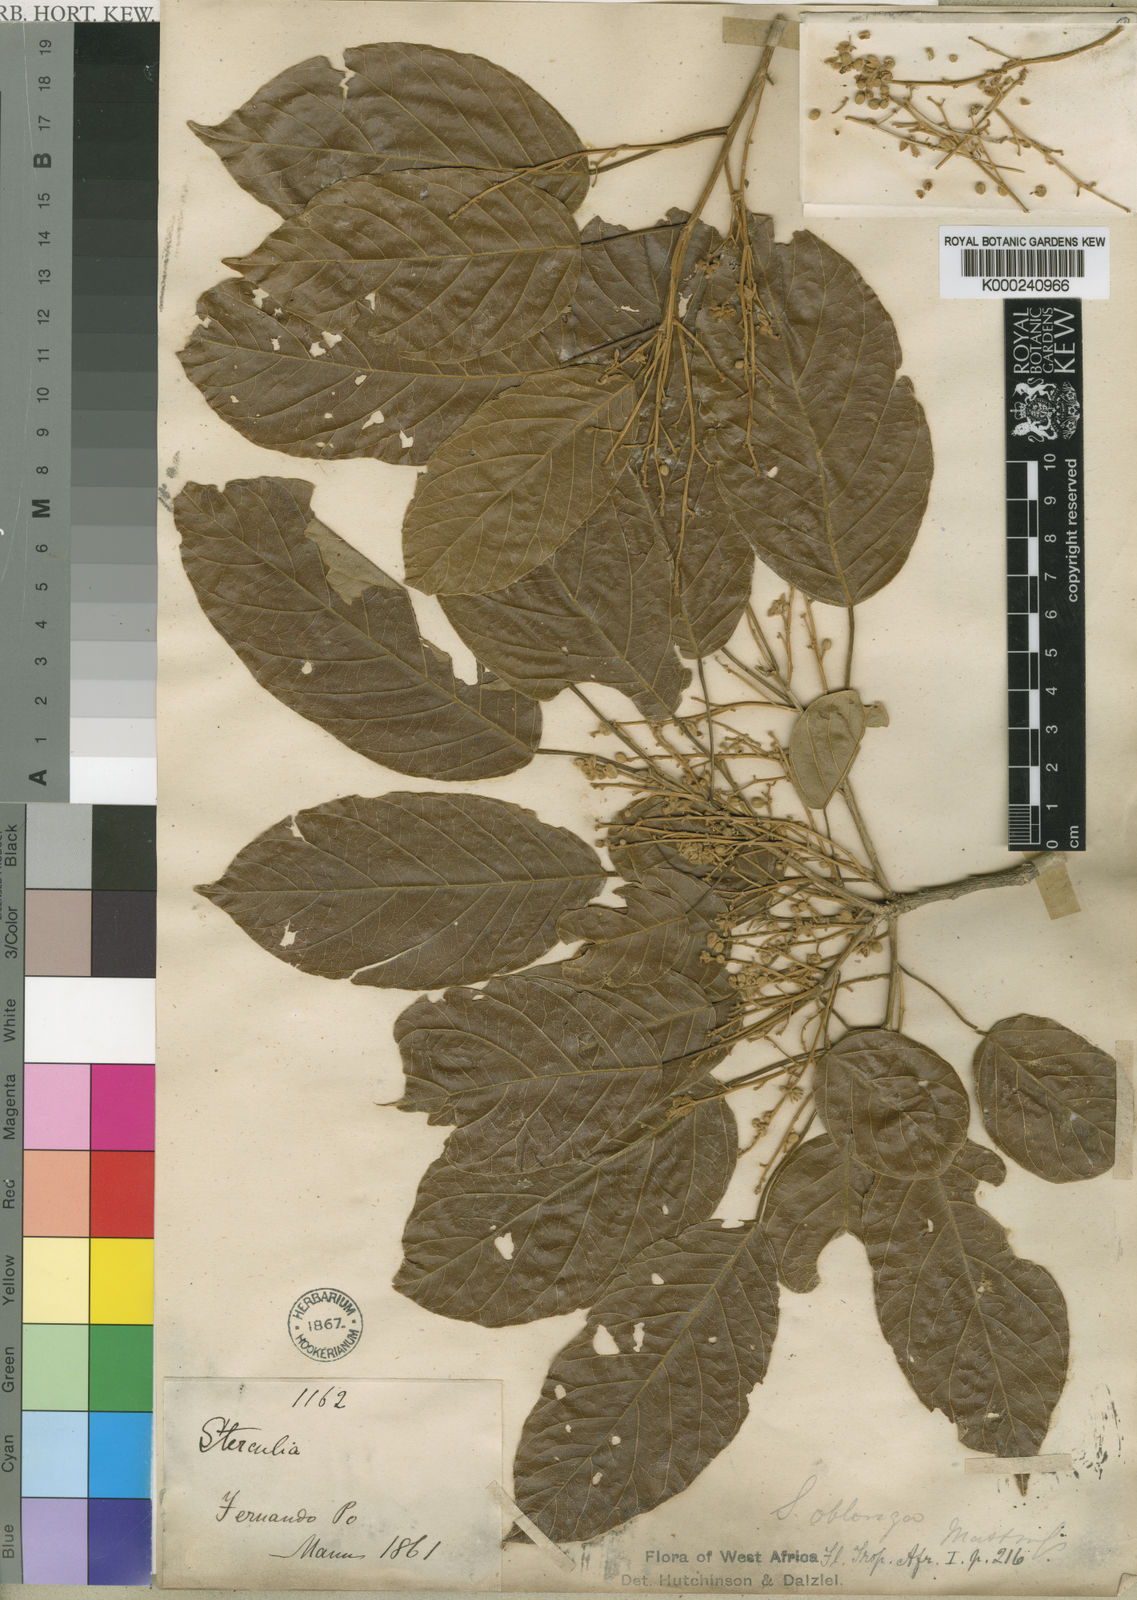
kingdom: Plantae
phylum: Tracheophyta
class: Magnoliopsida
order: Malvales
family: Malvaceae
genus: Sterculia
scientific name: Sterculia oblonga
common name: Yellow sterculia
